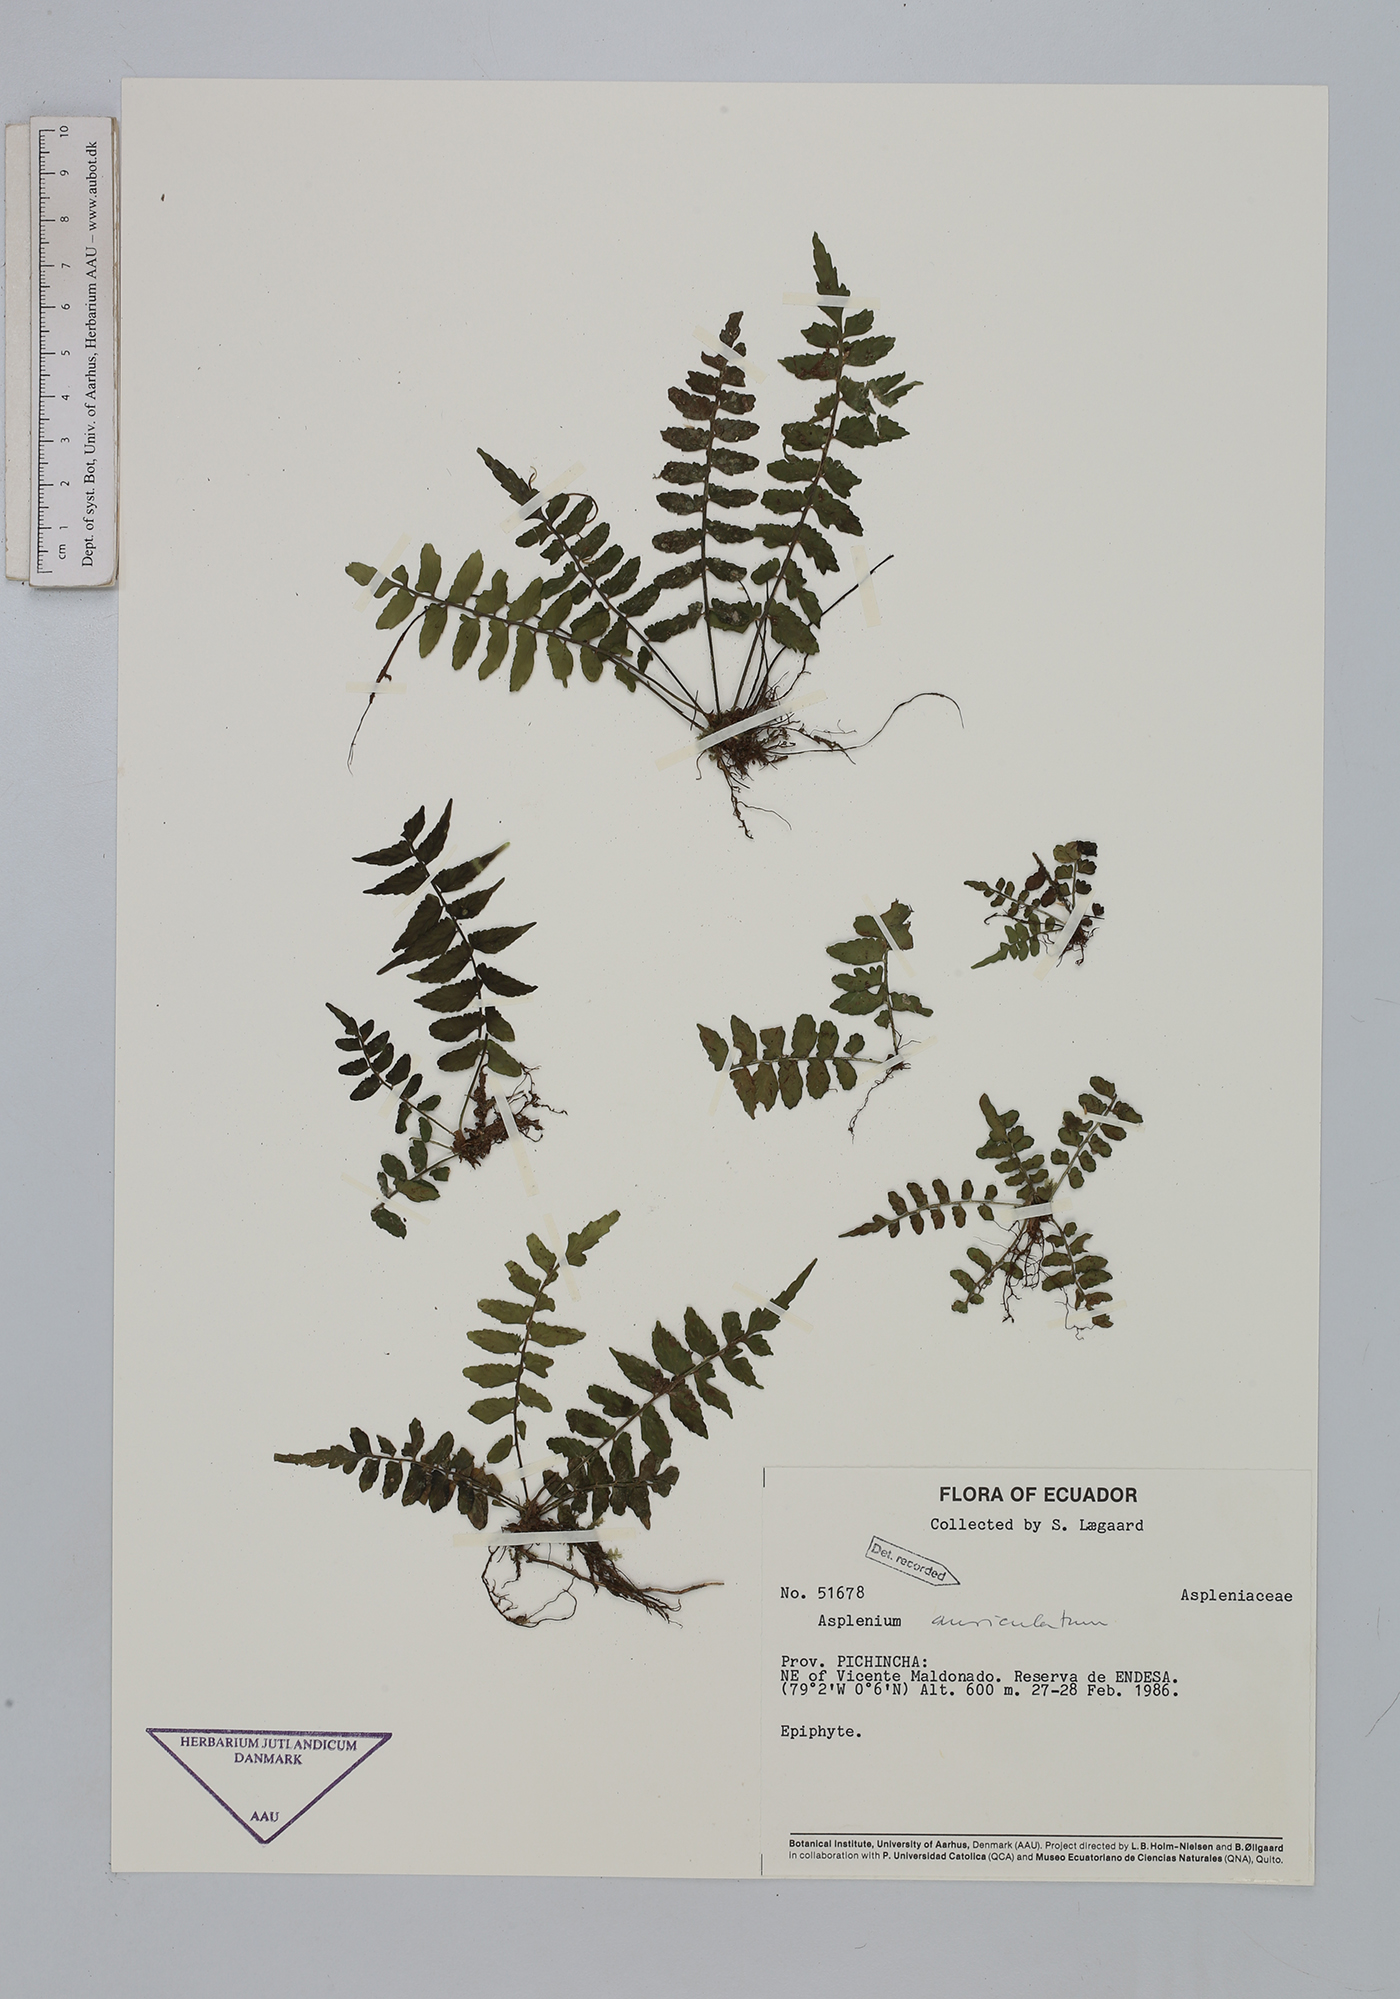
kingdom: Plantae
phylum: Tracheophyta
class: Polypodiopsida
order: Polypodiales
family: Aspleniaceae
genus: Asplenium
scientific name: Asplenium auriculatum
